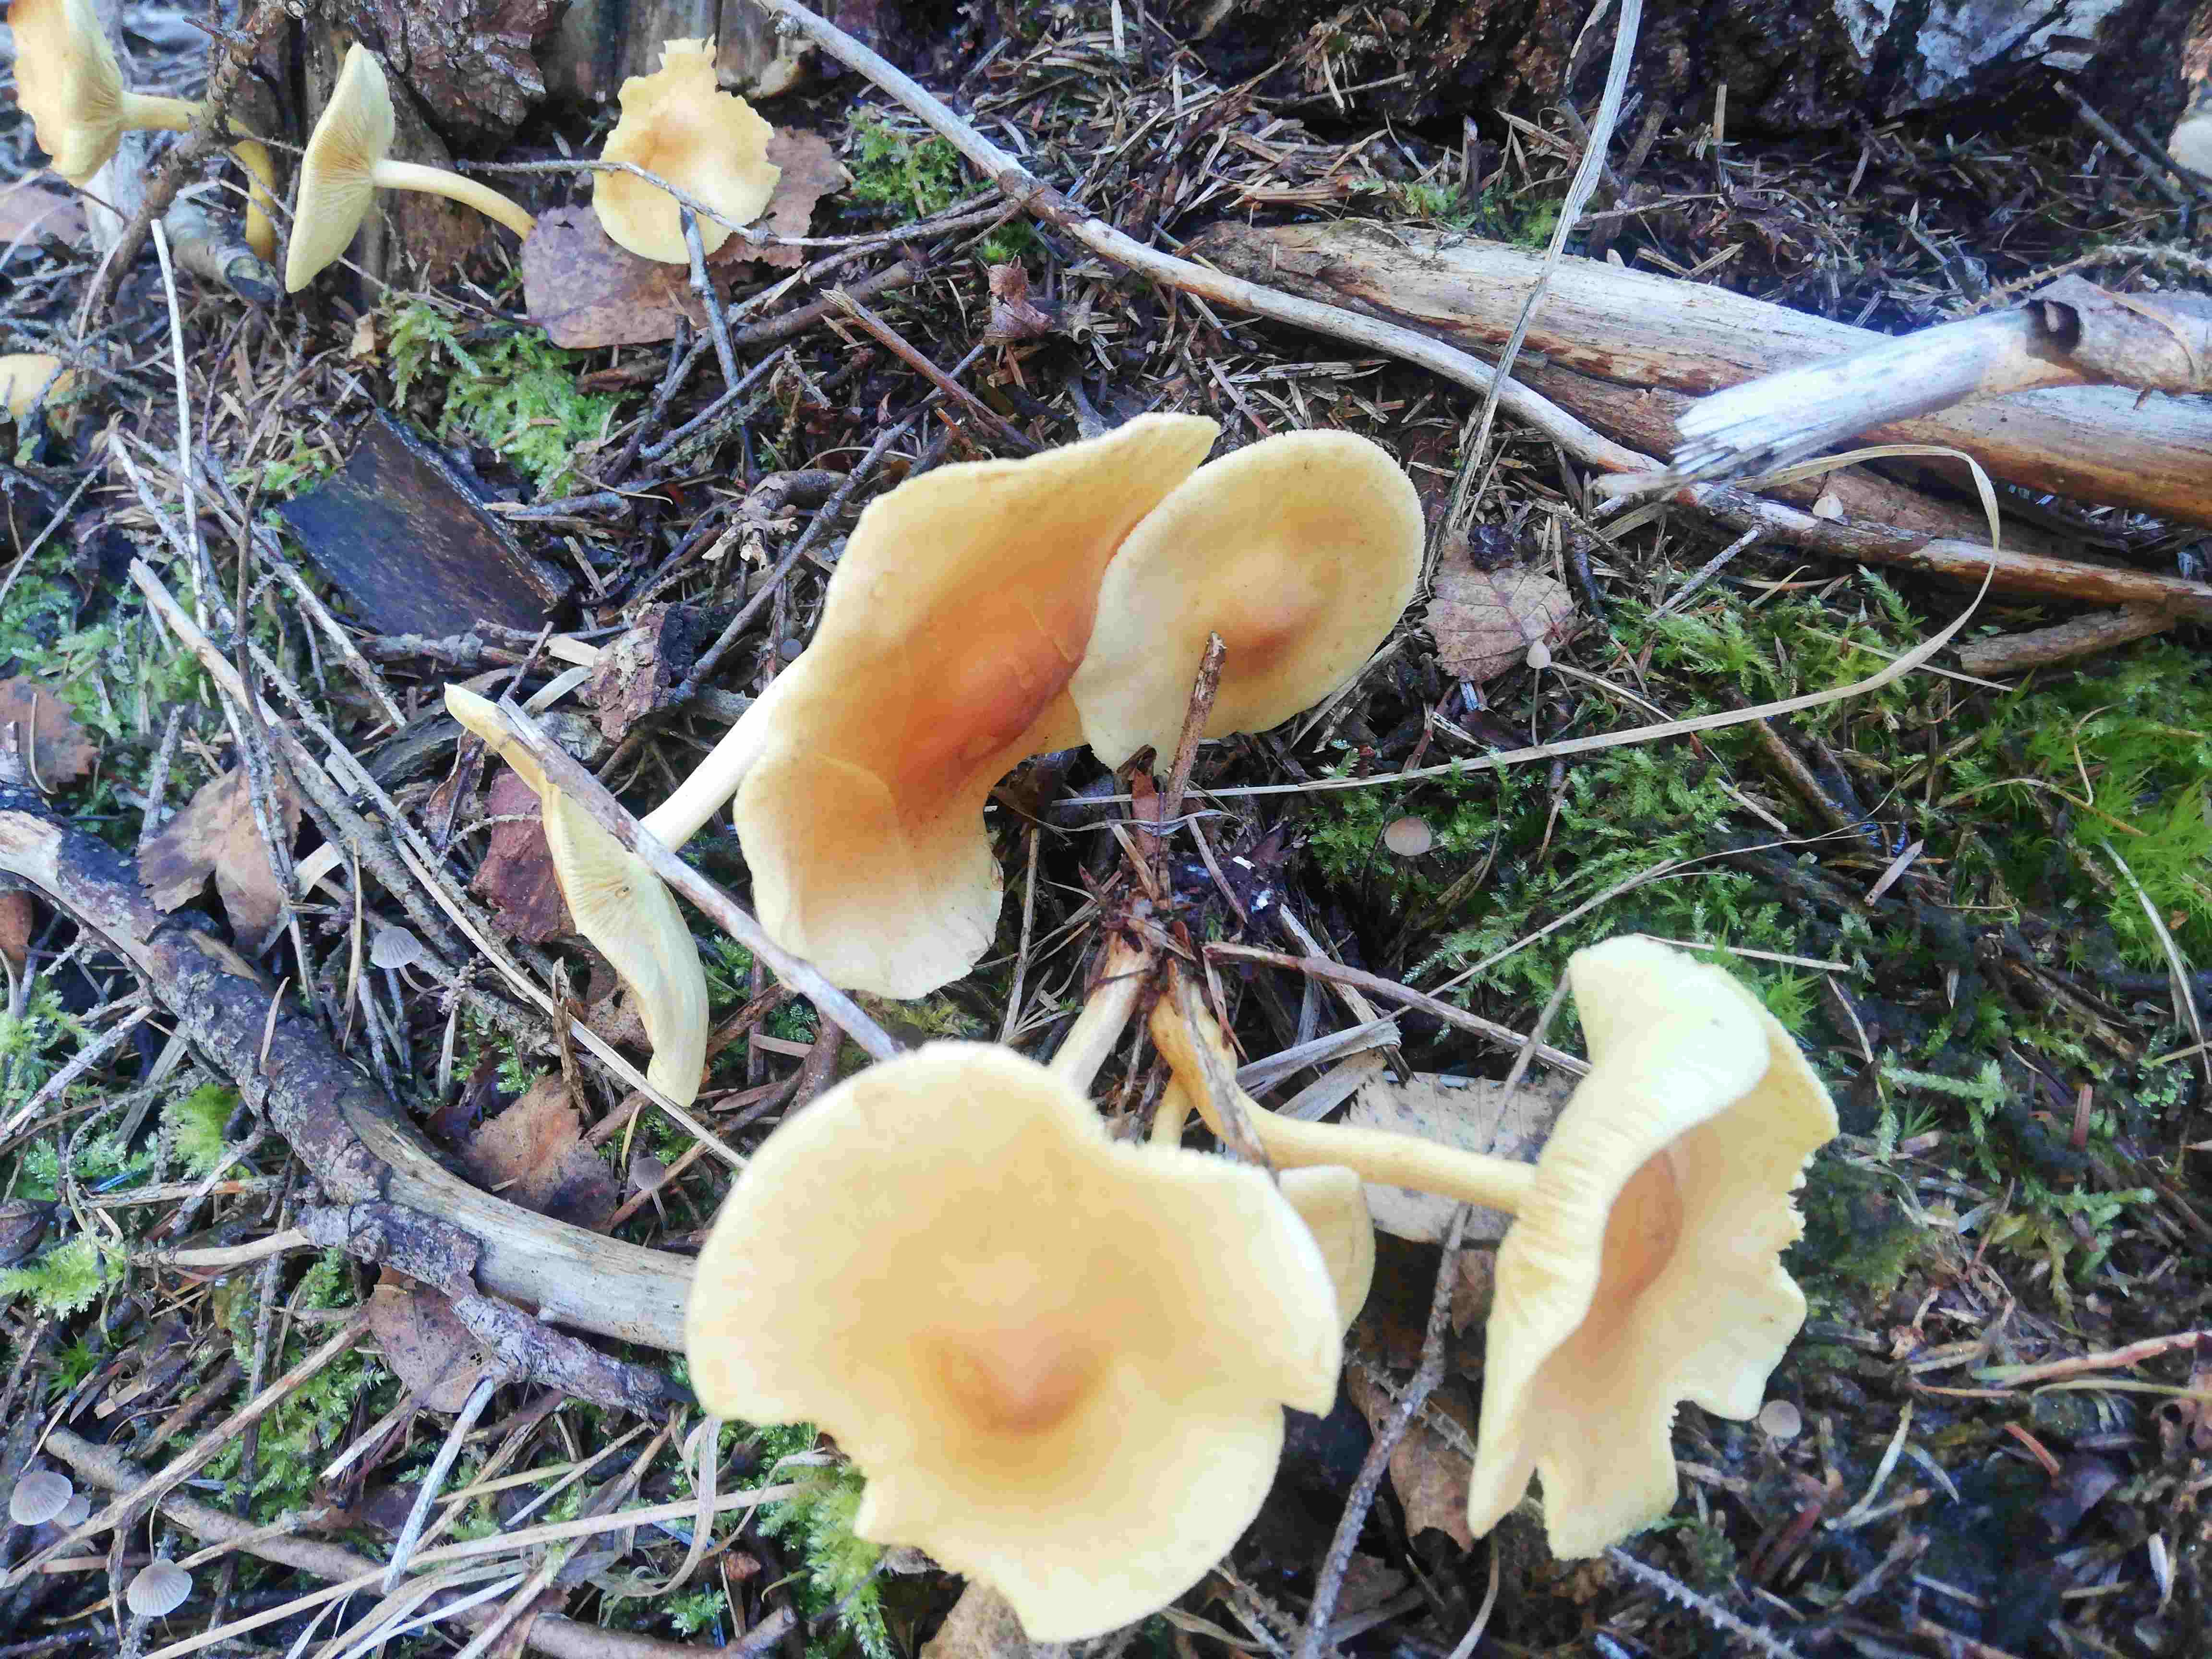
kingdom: Fungi
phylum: Basidiomycota
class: Agaricomycetes
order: Agaricales
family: Omphalotaceae
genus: Gymnopus
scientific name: Gymnopus
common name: fladhat
